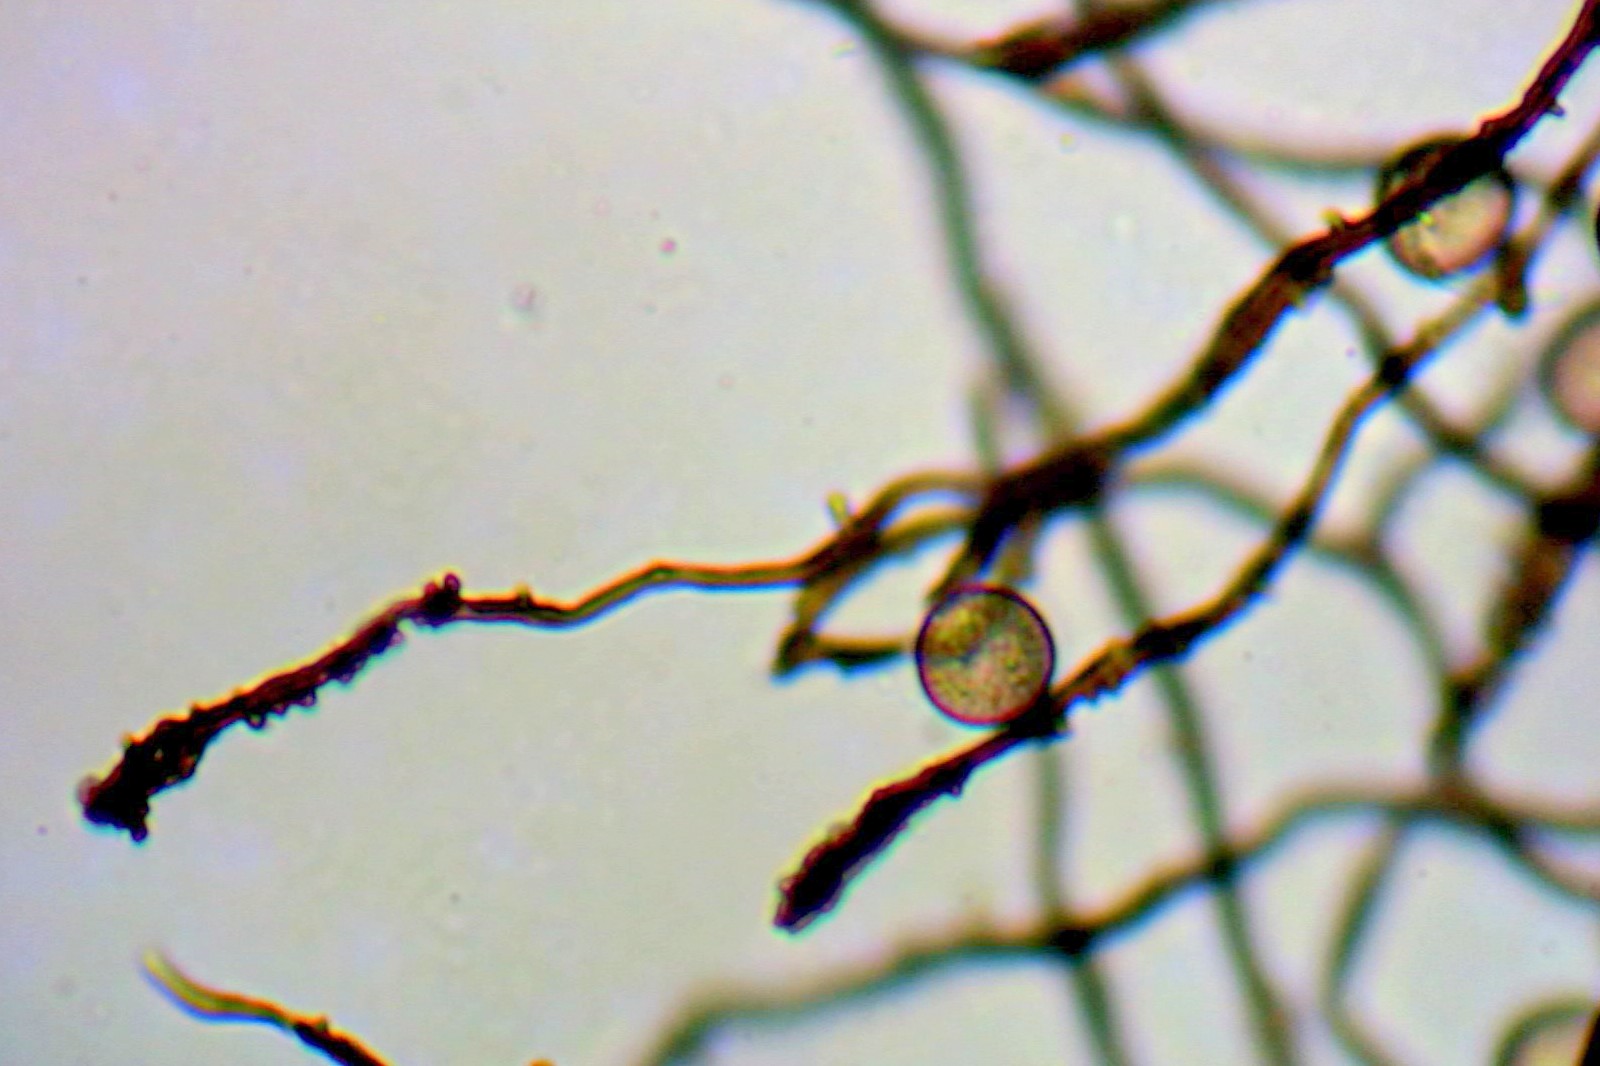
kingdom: Protozoa
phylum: Mycetozoa
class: Myxomycetes
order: Stemonitidales
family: Stemonitidaceae
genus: Enerthenema
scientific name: Enerthenema papillatum
